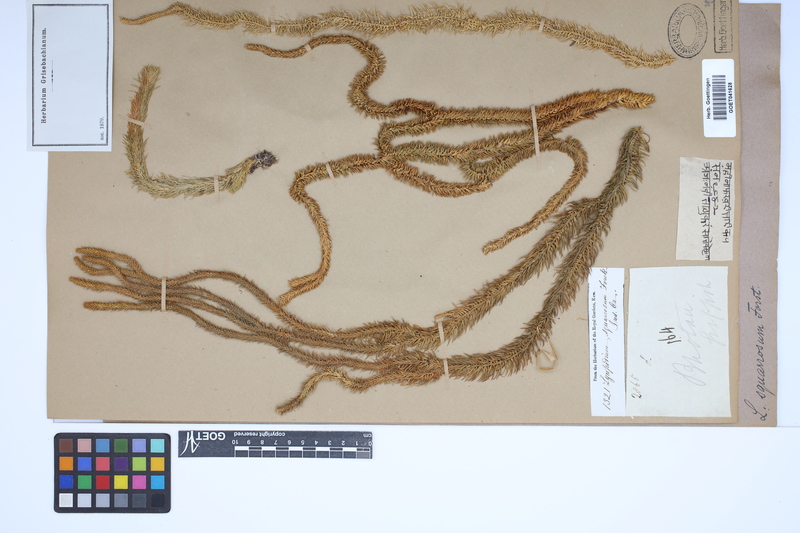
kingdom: Plantae
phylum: Tracheophyta
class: Lycopodiopsida
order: Lycopodiales
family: Lycopodiaceae
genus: Phlegmariurus
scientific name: Phlegmariurus squarrosus
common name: Rock tassel-fern
